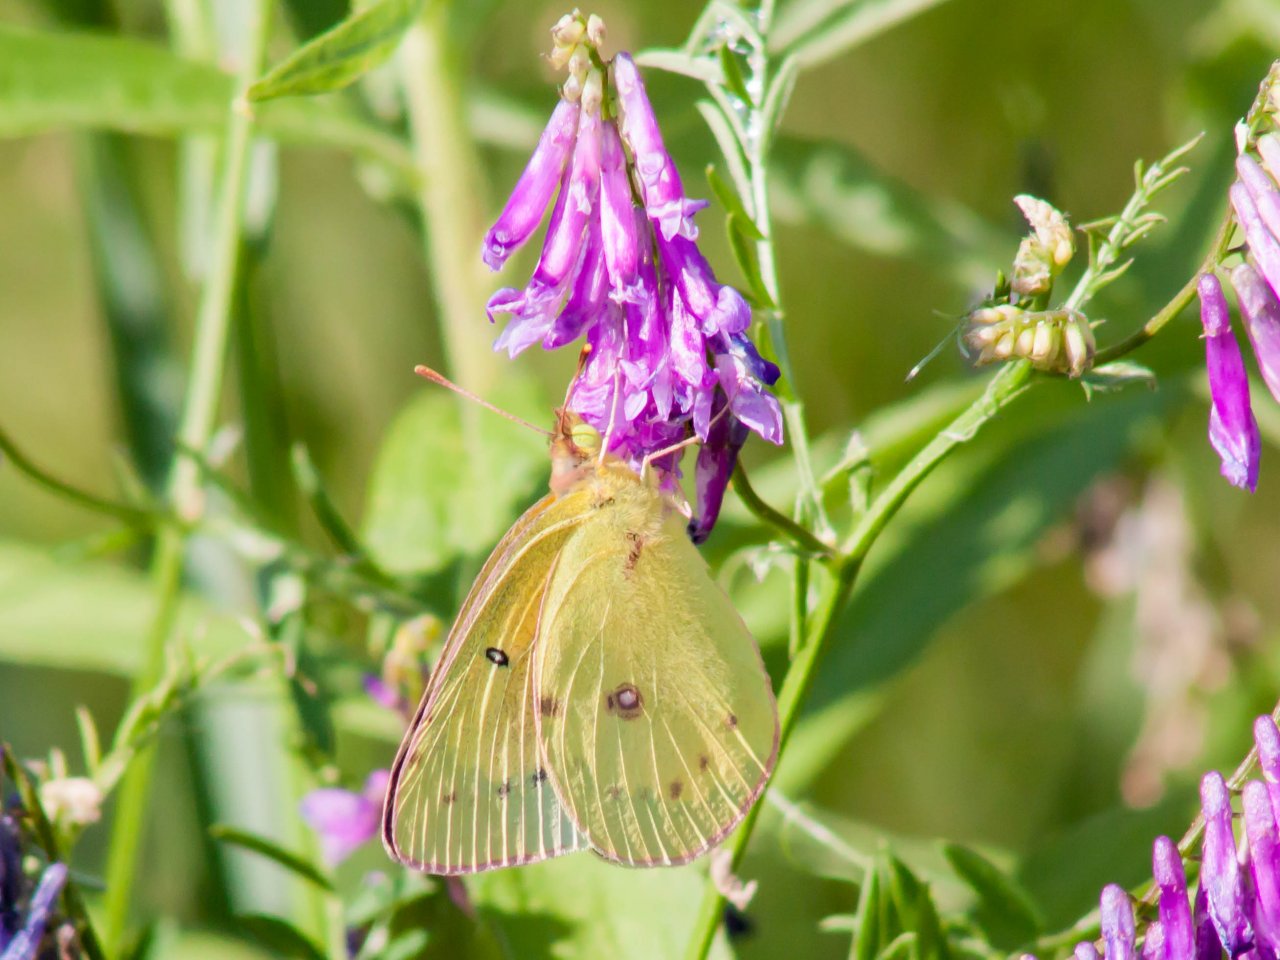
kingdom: Animalia
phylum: Arthropoda
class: Insecta
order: Lepidoptera
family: Pieridae
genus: Colias
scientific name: Colias eurytheme
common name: Orange Sulphur
